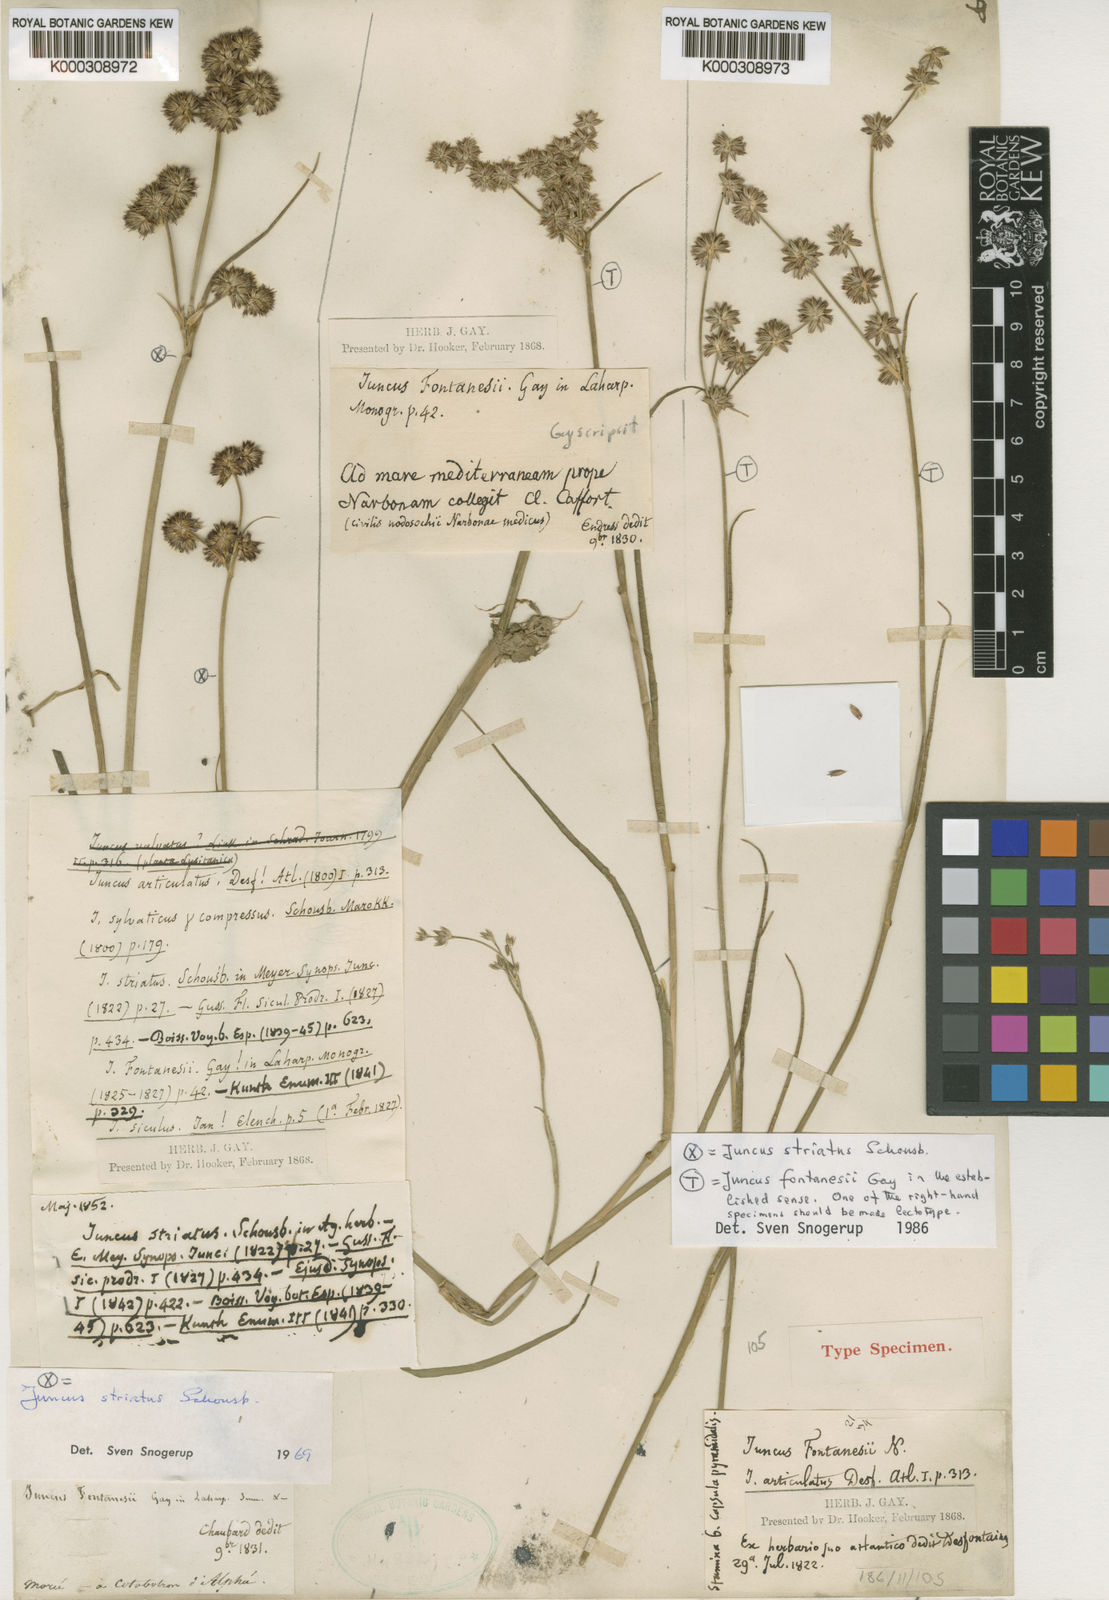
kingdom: Plantae
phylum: Tracheophyta
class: Liliopsida
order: Poales
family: Juncaceae
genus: Juncus
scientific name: Juncus fontanesii
